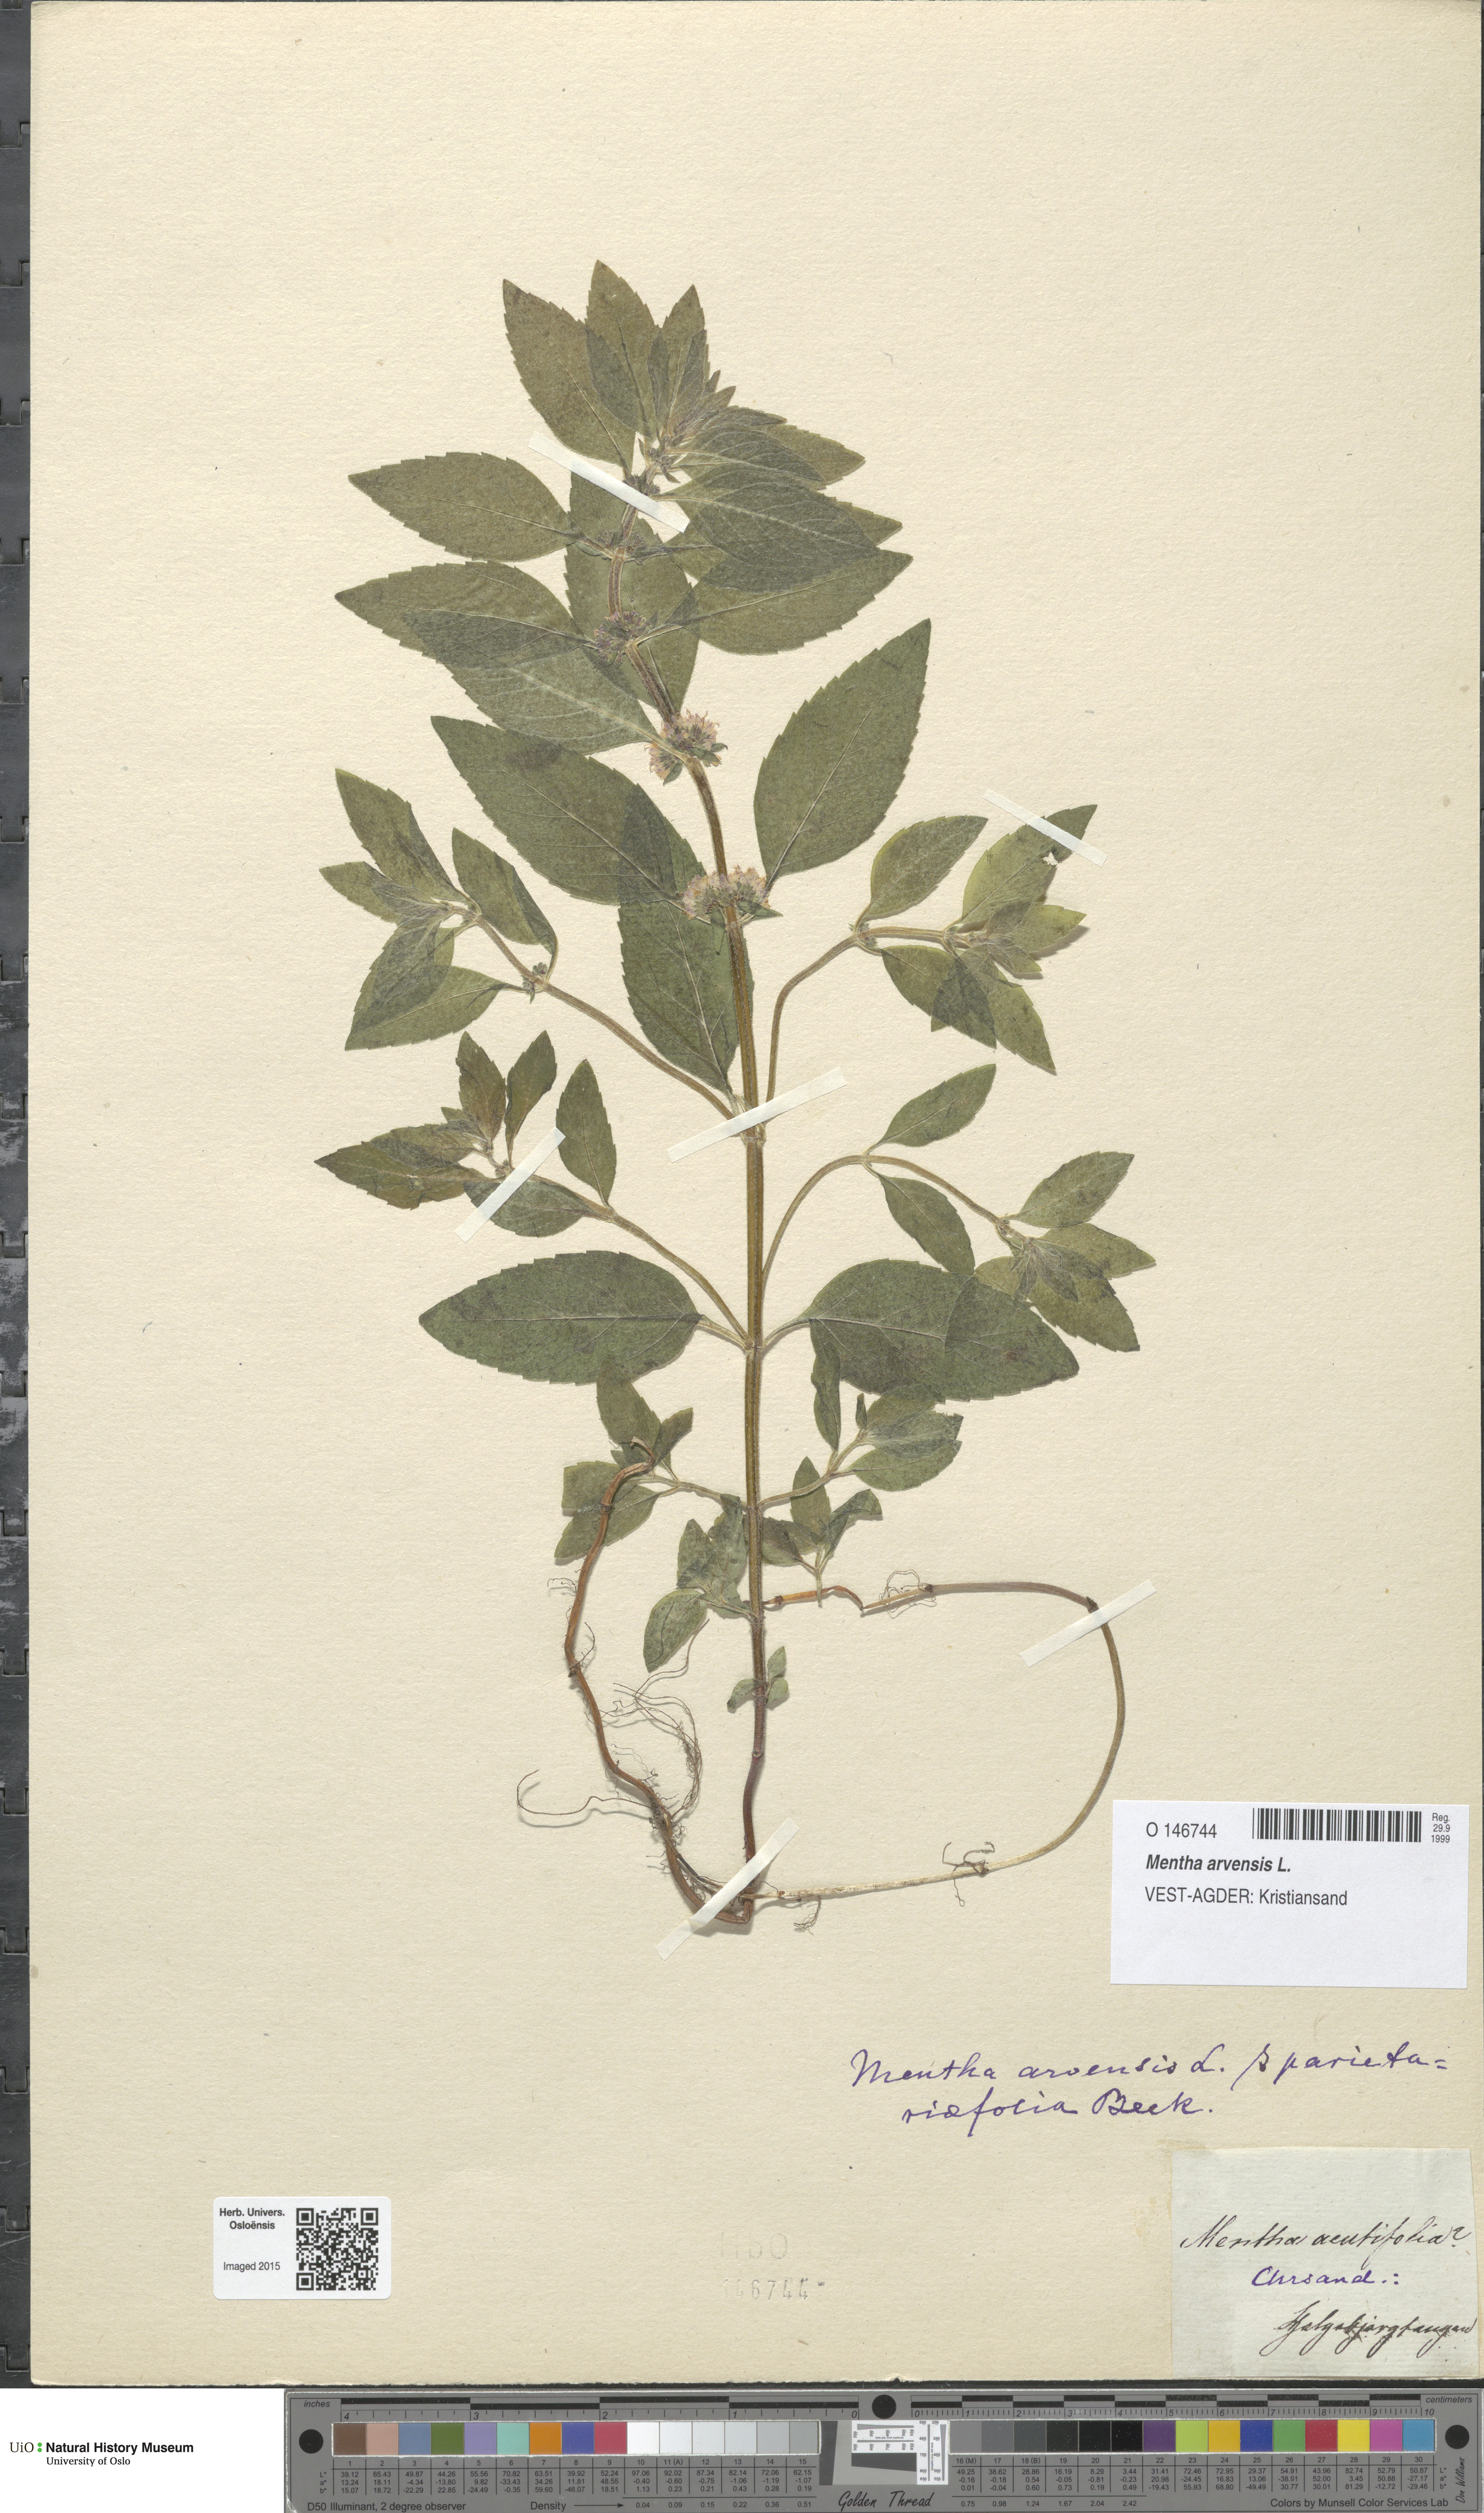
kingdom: Plantae
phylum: Tracheophyta
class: Magnoliopsida
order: Lamiales
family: Lamiaceae
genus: Mentha
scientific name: Mentha arvensis
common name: Corn mint
